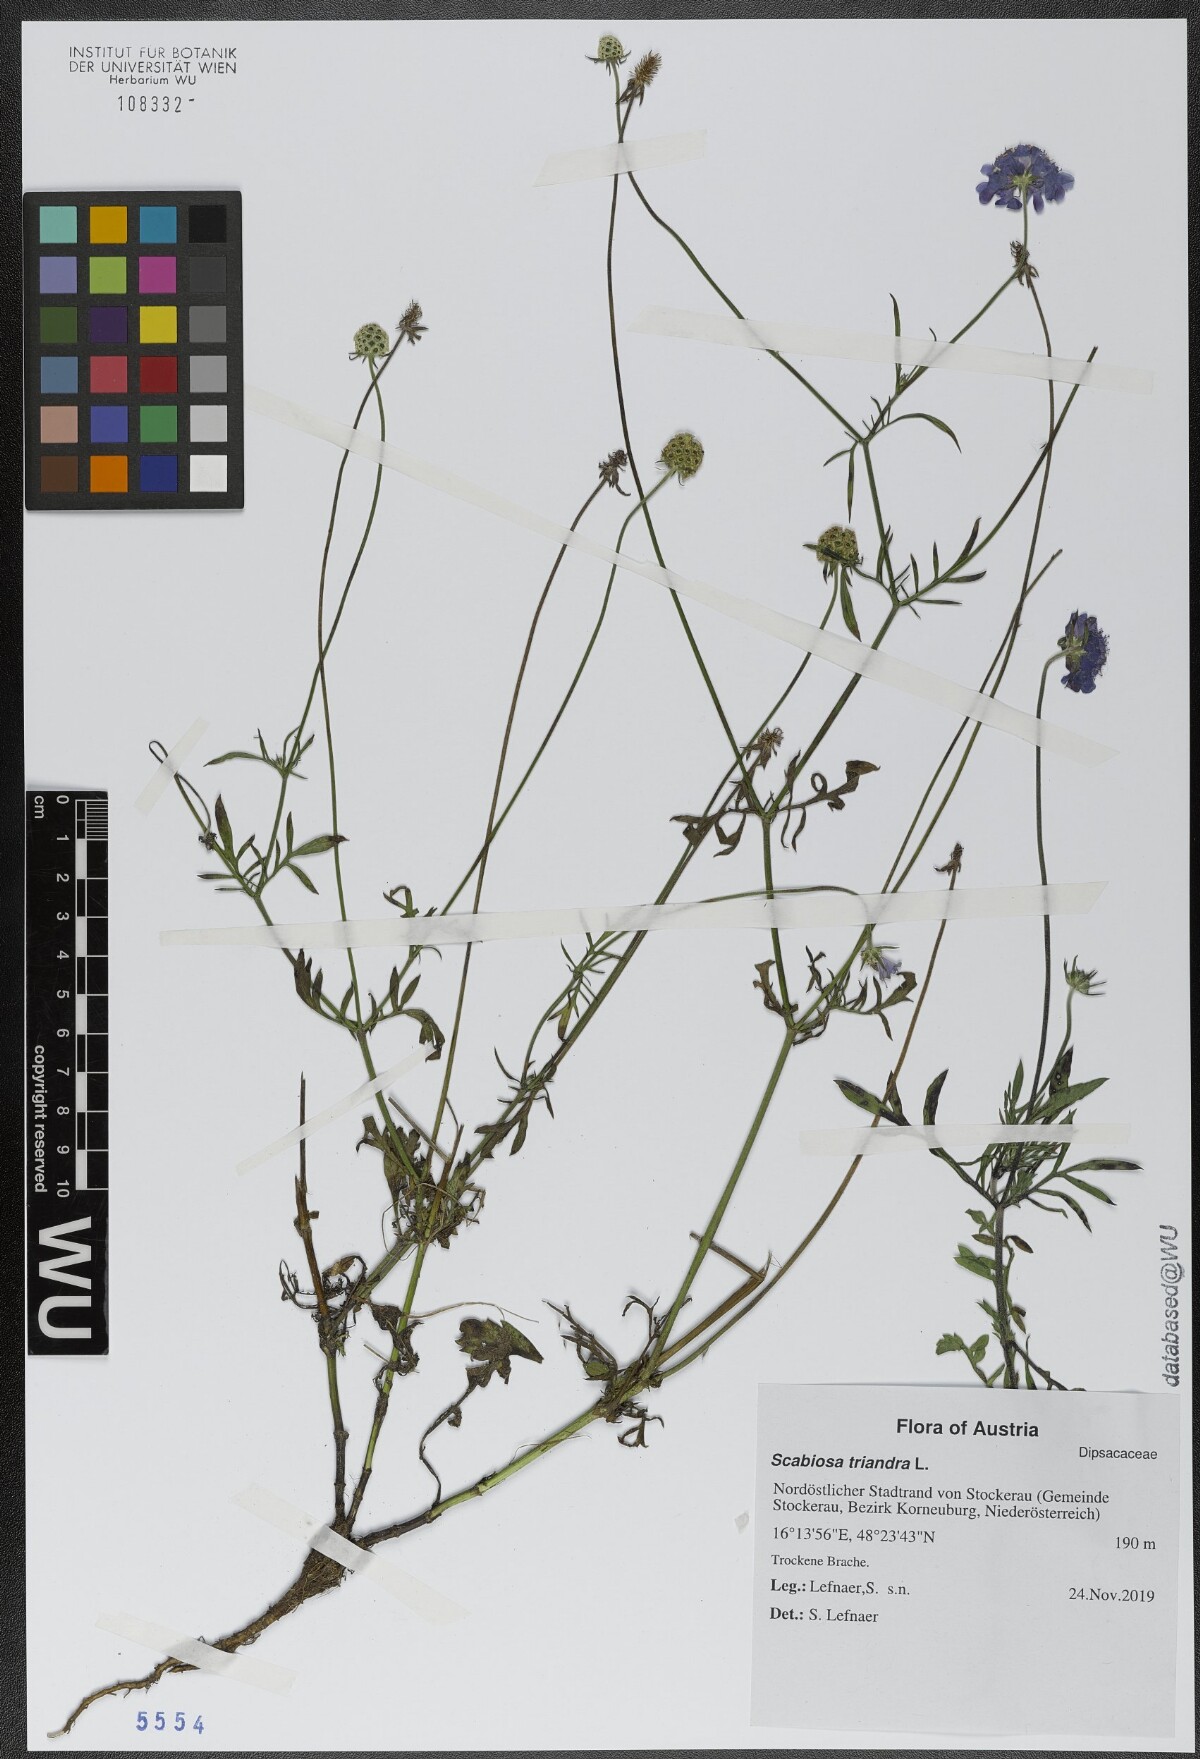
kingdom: Plantae
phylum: Tracheophyta
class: Magnoliopsida
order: Dipsacales
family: Caprifoliaceae
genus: Scabiosa
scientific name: Scabiosa triandra
